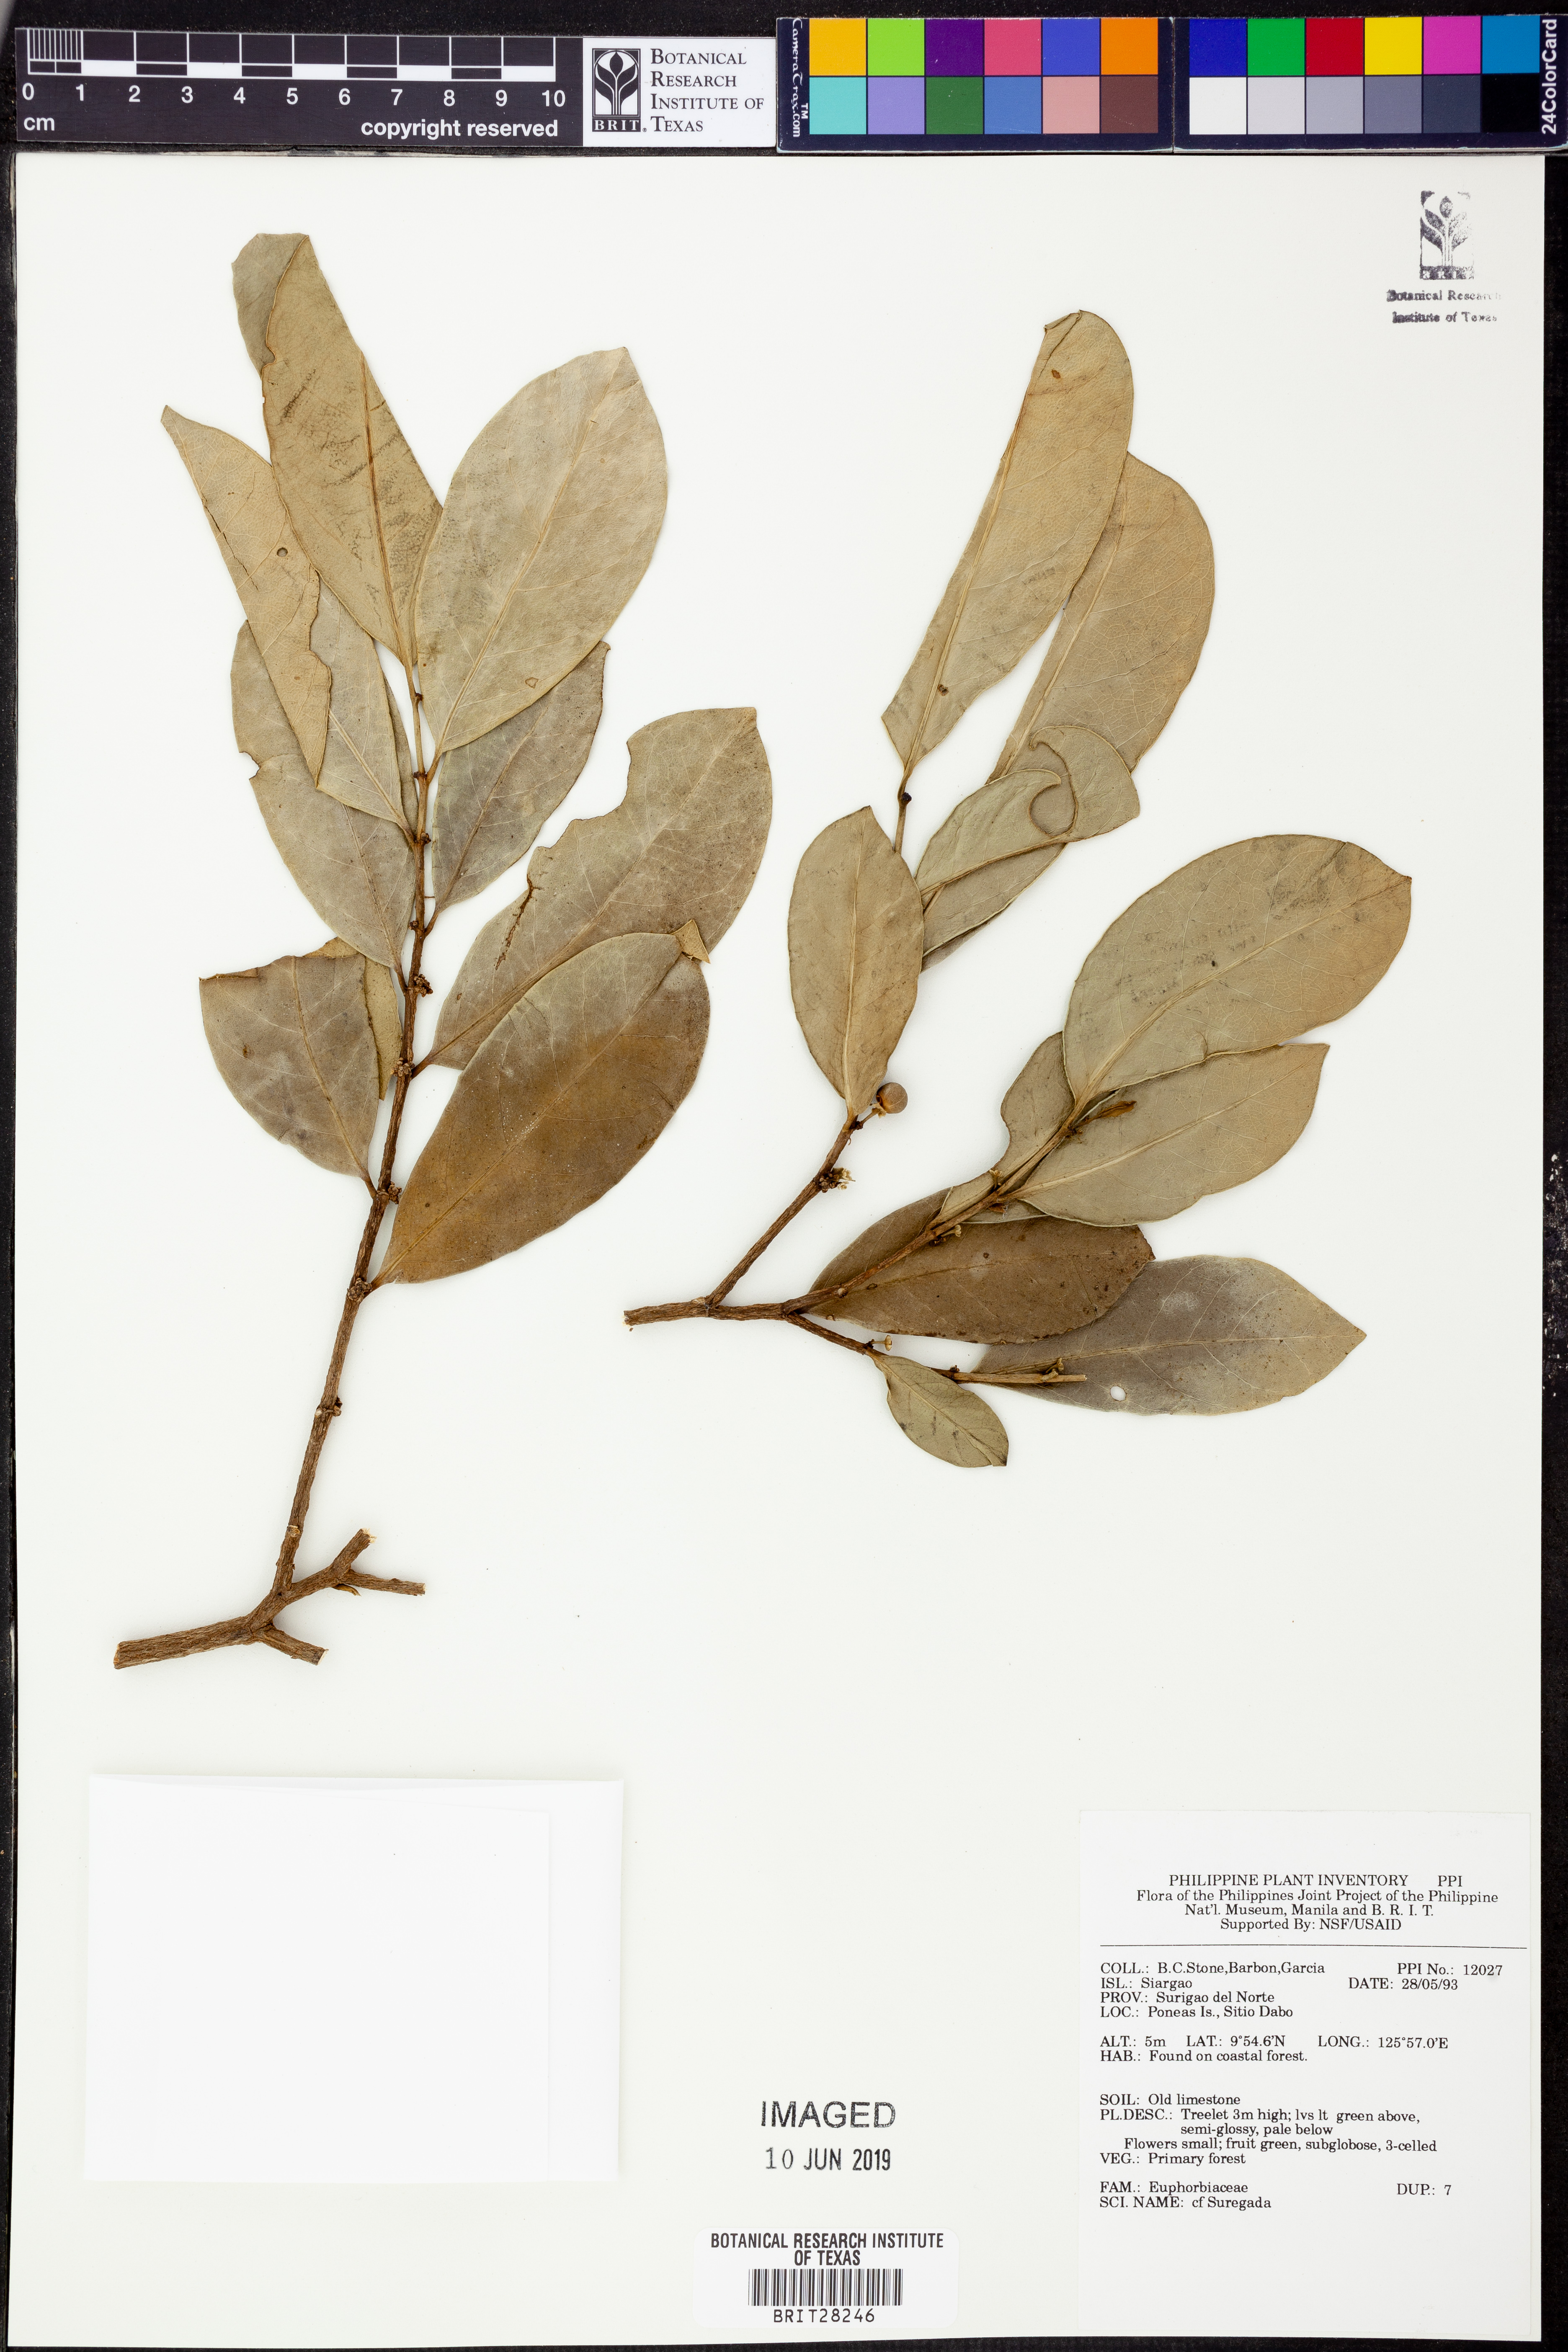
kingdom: Plantae
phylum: Tracheophyta
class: Magnoliopsida
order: Malpighiales
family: Euphorbiaceae
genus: Suregada
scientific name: Suregada
